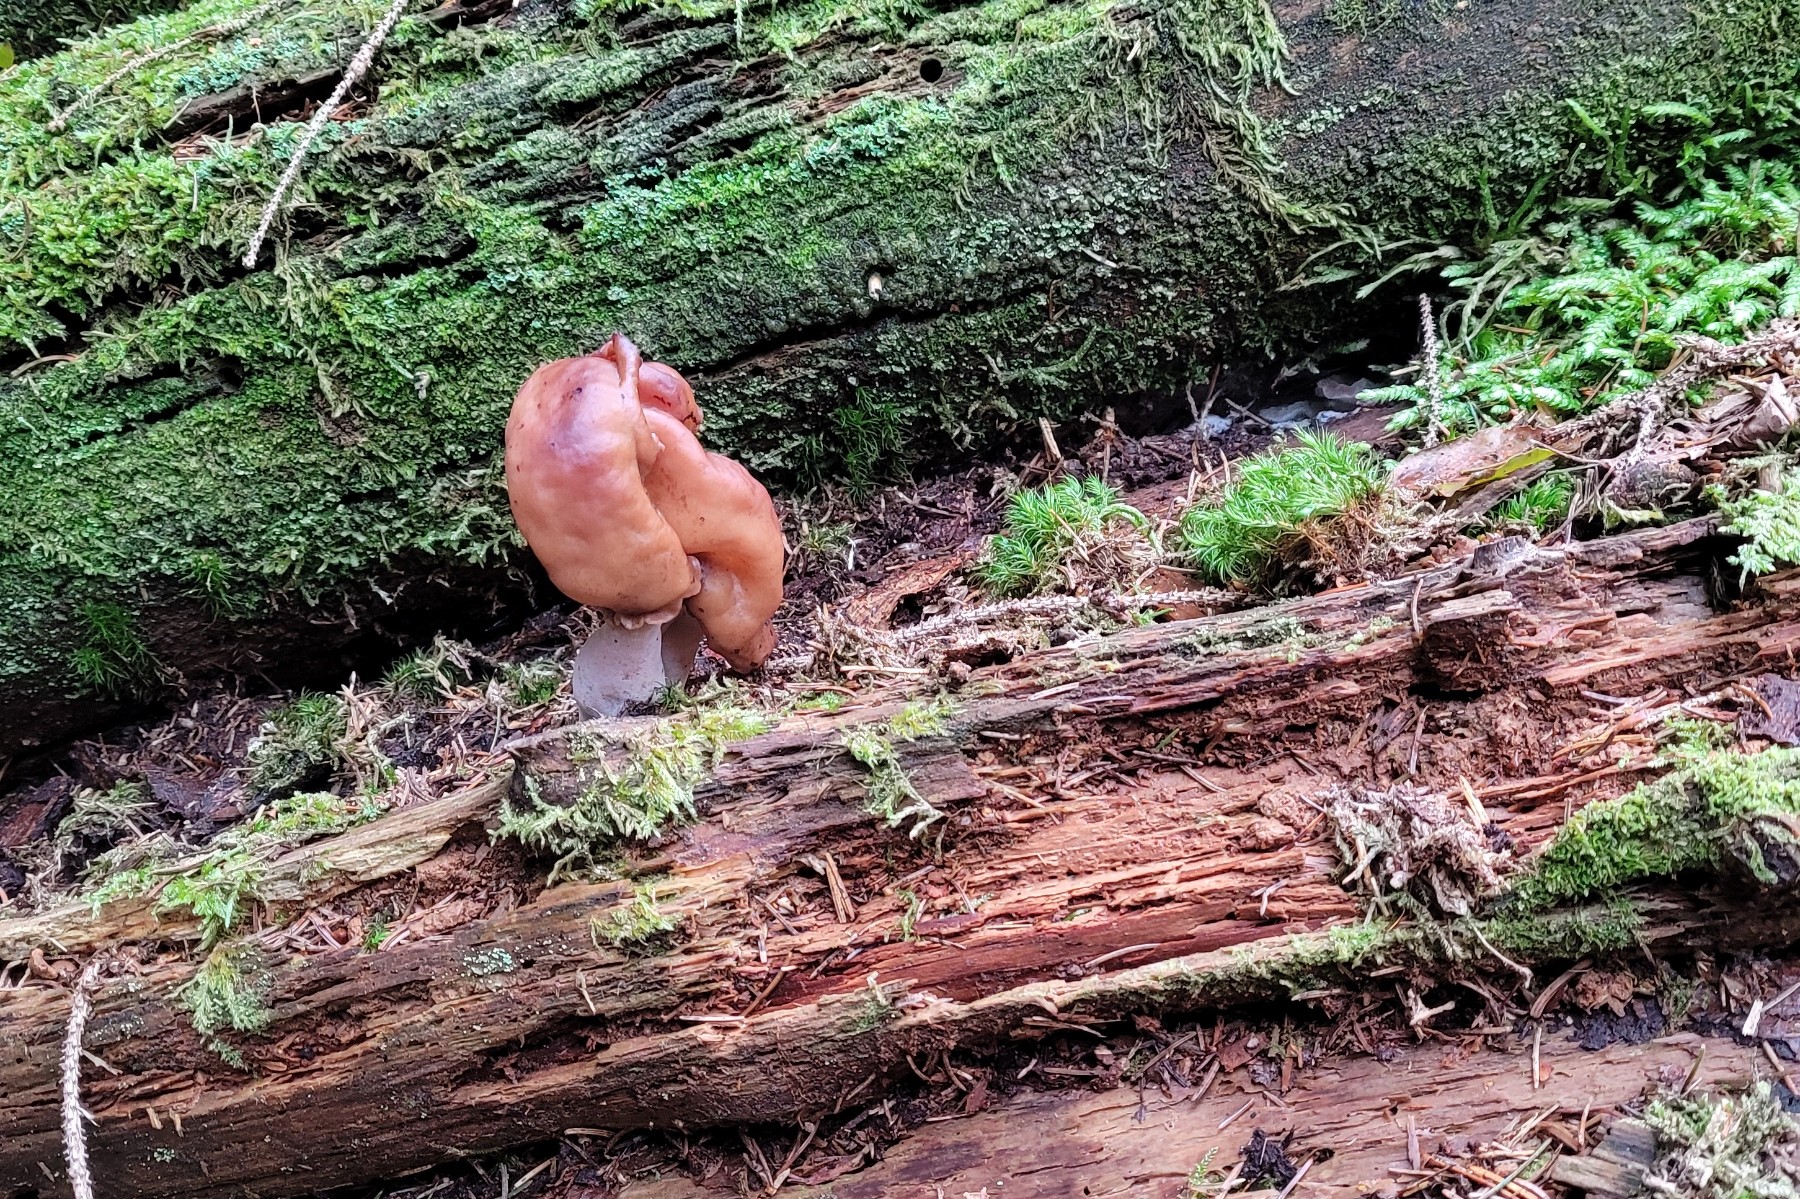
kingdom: Fungi
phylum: Ascomycota
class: Pezizomycetes
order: Pezizales
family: Discinaceae
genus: Gyromitra
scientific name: Gyromitra infula
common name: bispehue-stenmorkel
